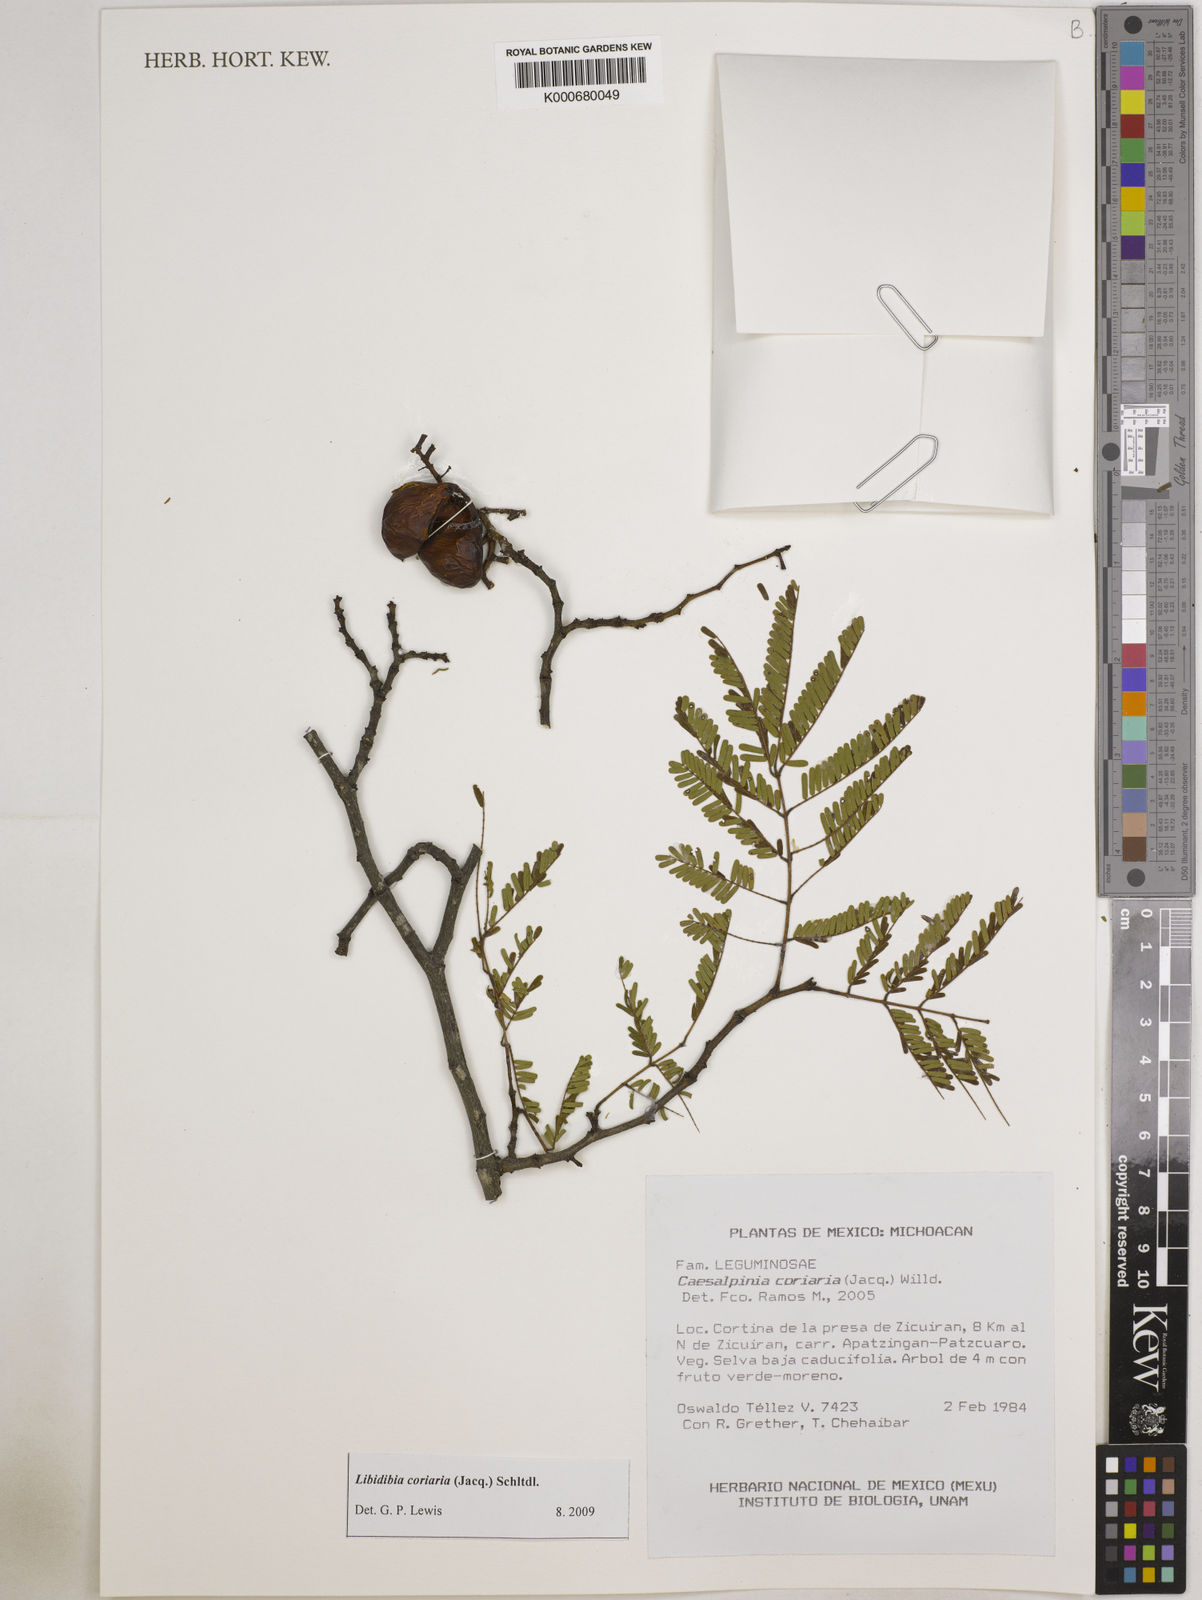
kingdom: Plantae
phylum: Tracheophyta
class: Magnoliopsida
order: Fabales
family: Fabaceae
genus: Libidibia
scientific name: Libidibia coriaria
